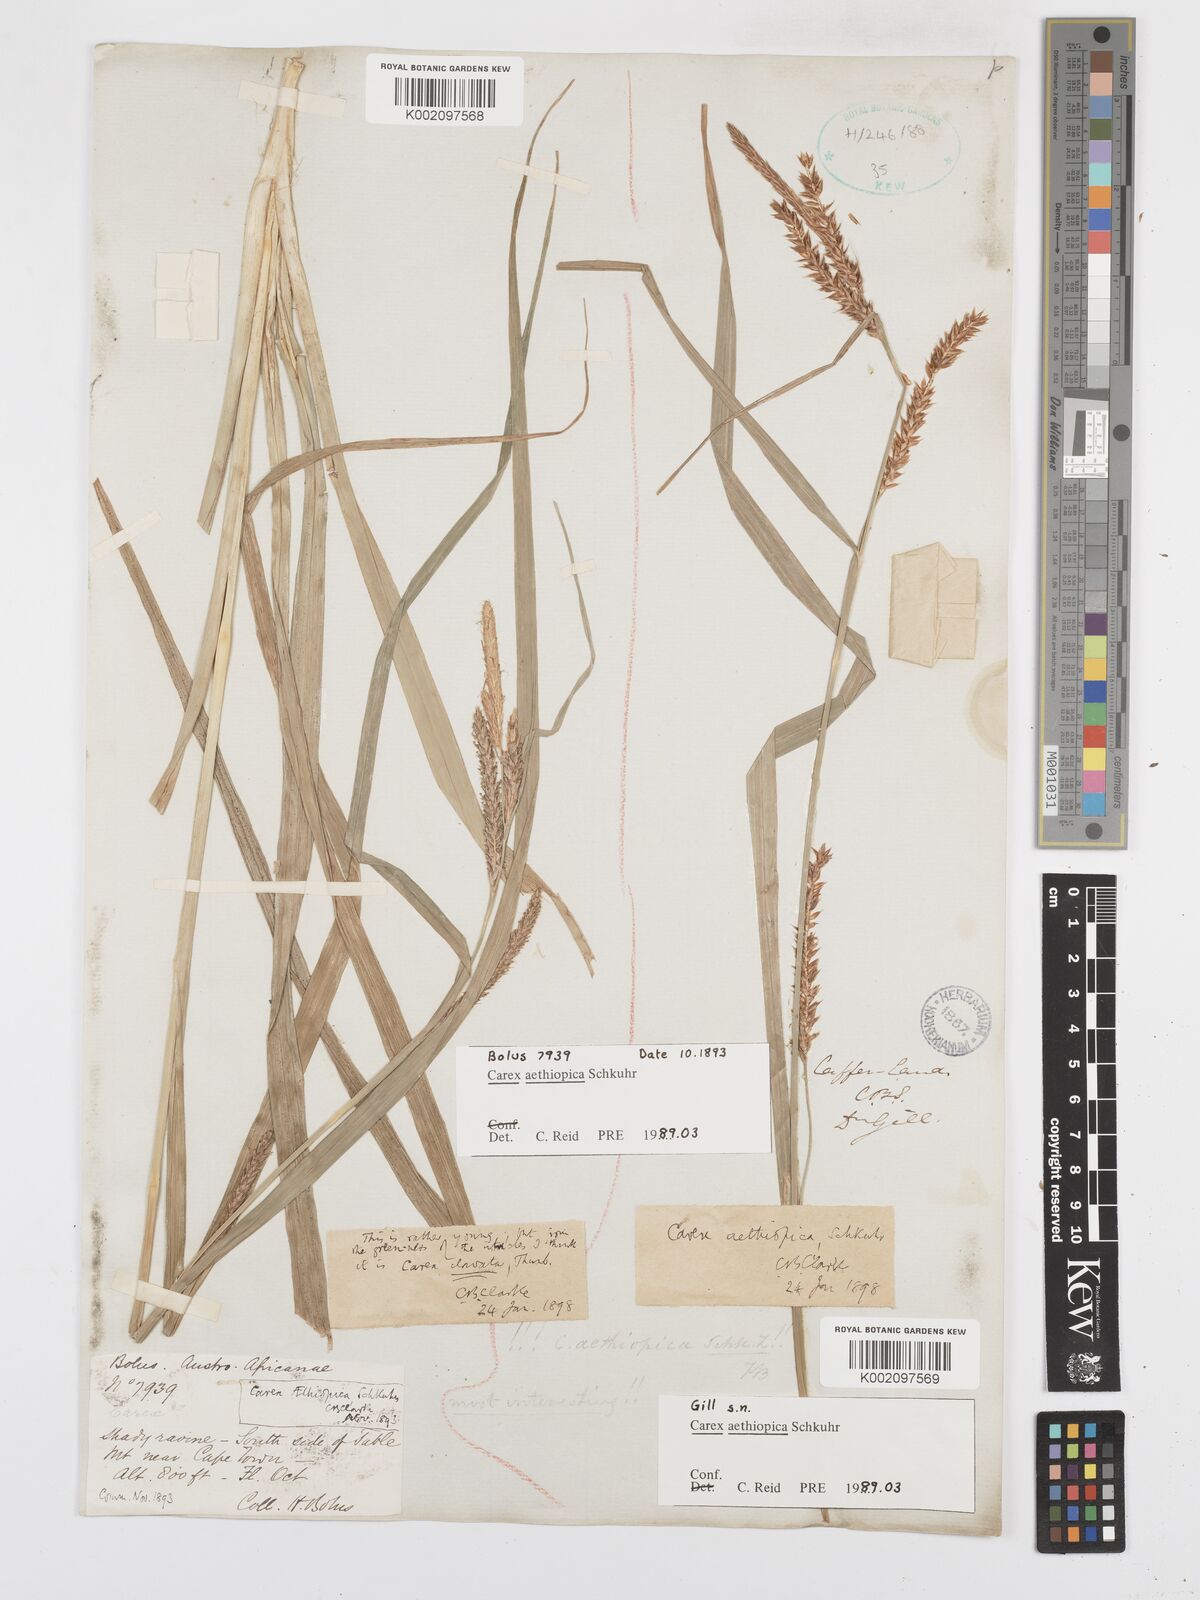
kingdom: Plantae
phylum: Tracheophyta
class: Liliopsida
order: Poales
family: Cyperaceae
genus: Carex
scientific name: Carex aethiopica
